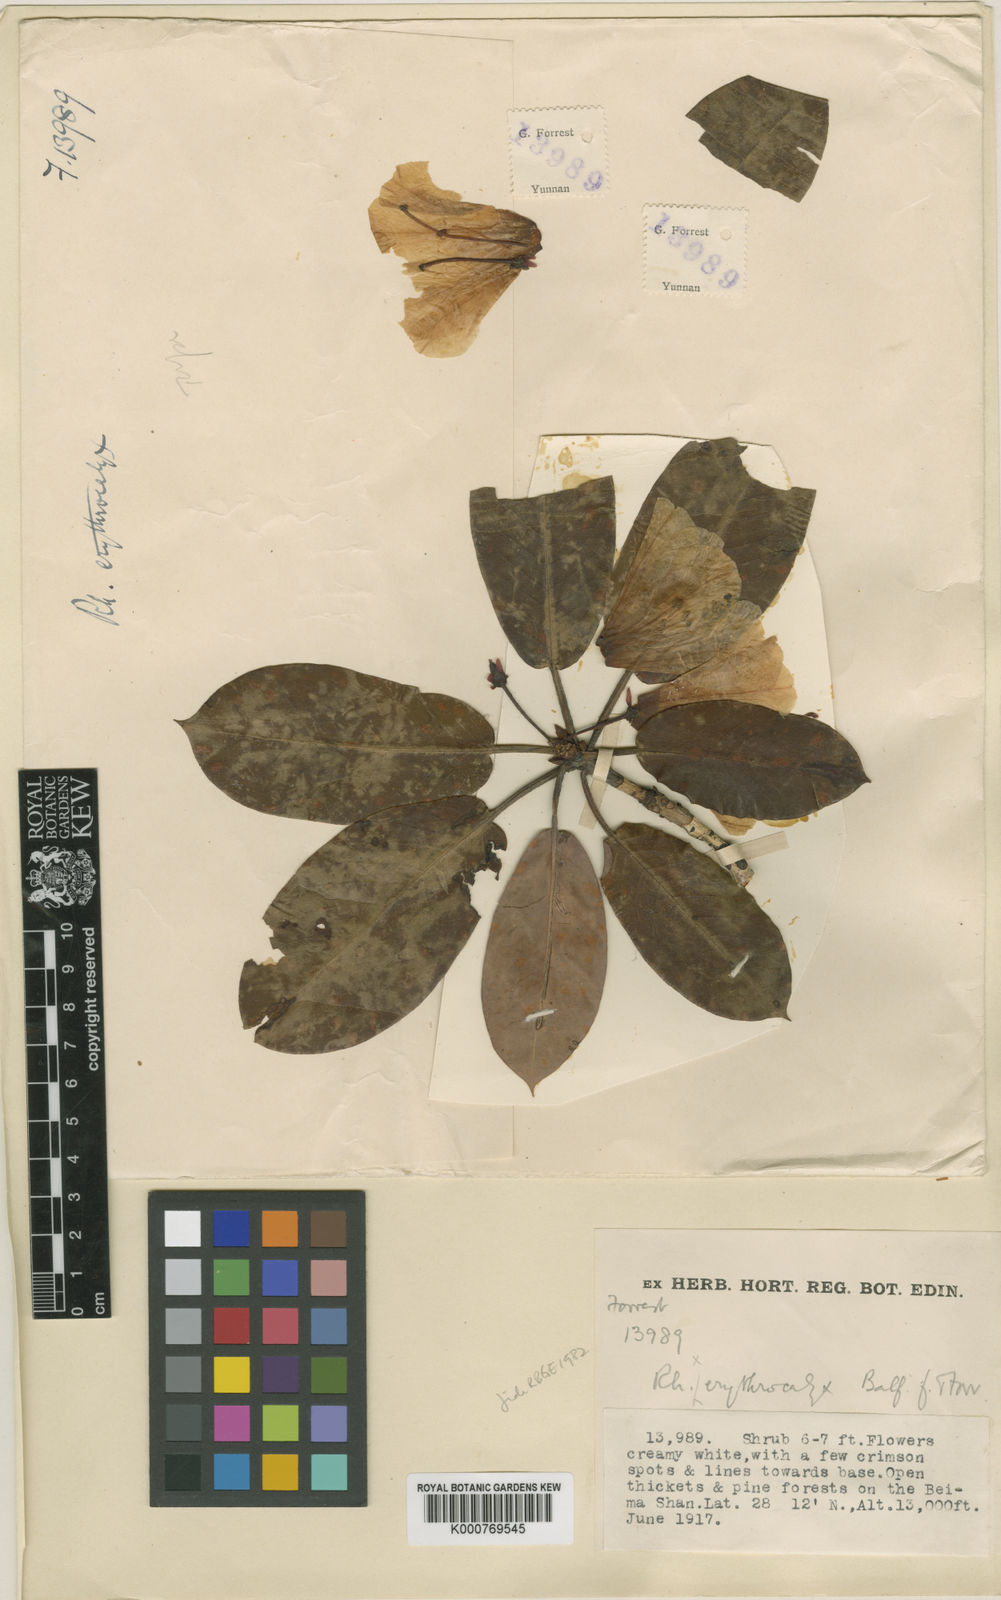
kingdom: Plantae
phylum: Tracheophyta
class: Magnoliopsida
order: Ericales
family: Ericaceae
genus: Rhododendron
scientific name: Rhododendron erythrocalyx
